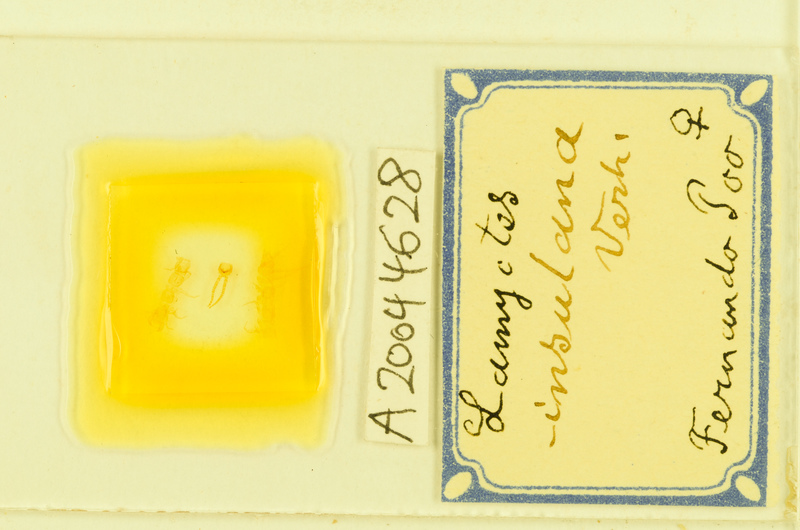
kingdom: Animalia
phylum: Arthropoda
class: Chilopoda
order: Lithobiomorpha
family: Henicopidae
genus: Lamyctes
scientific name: Lamyctes insulanus
